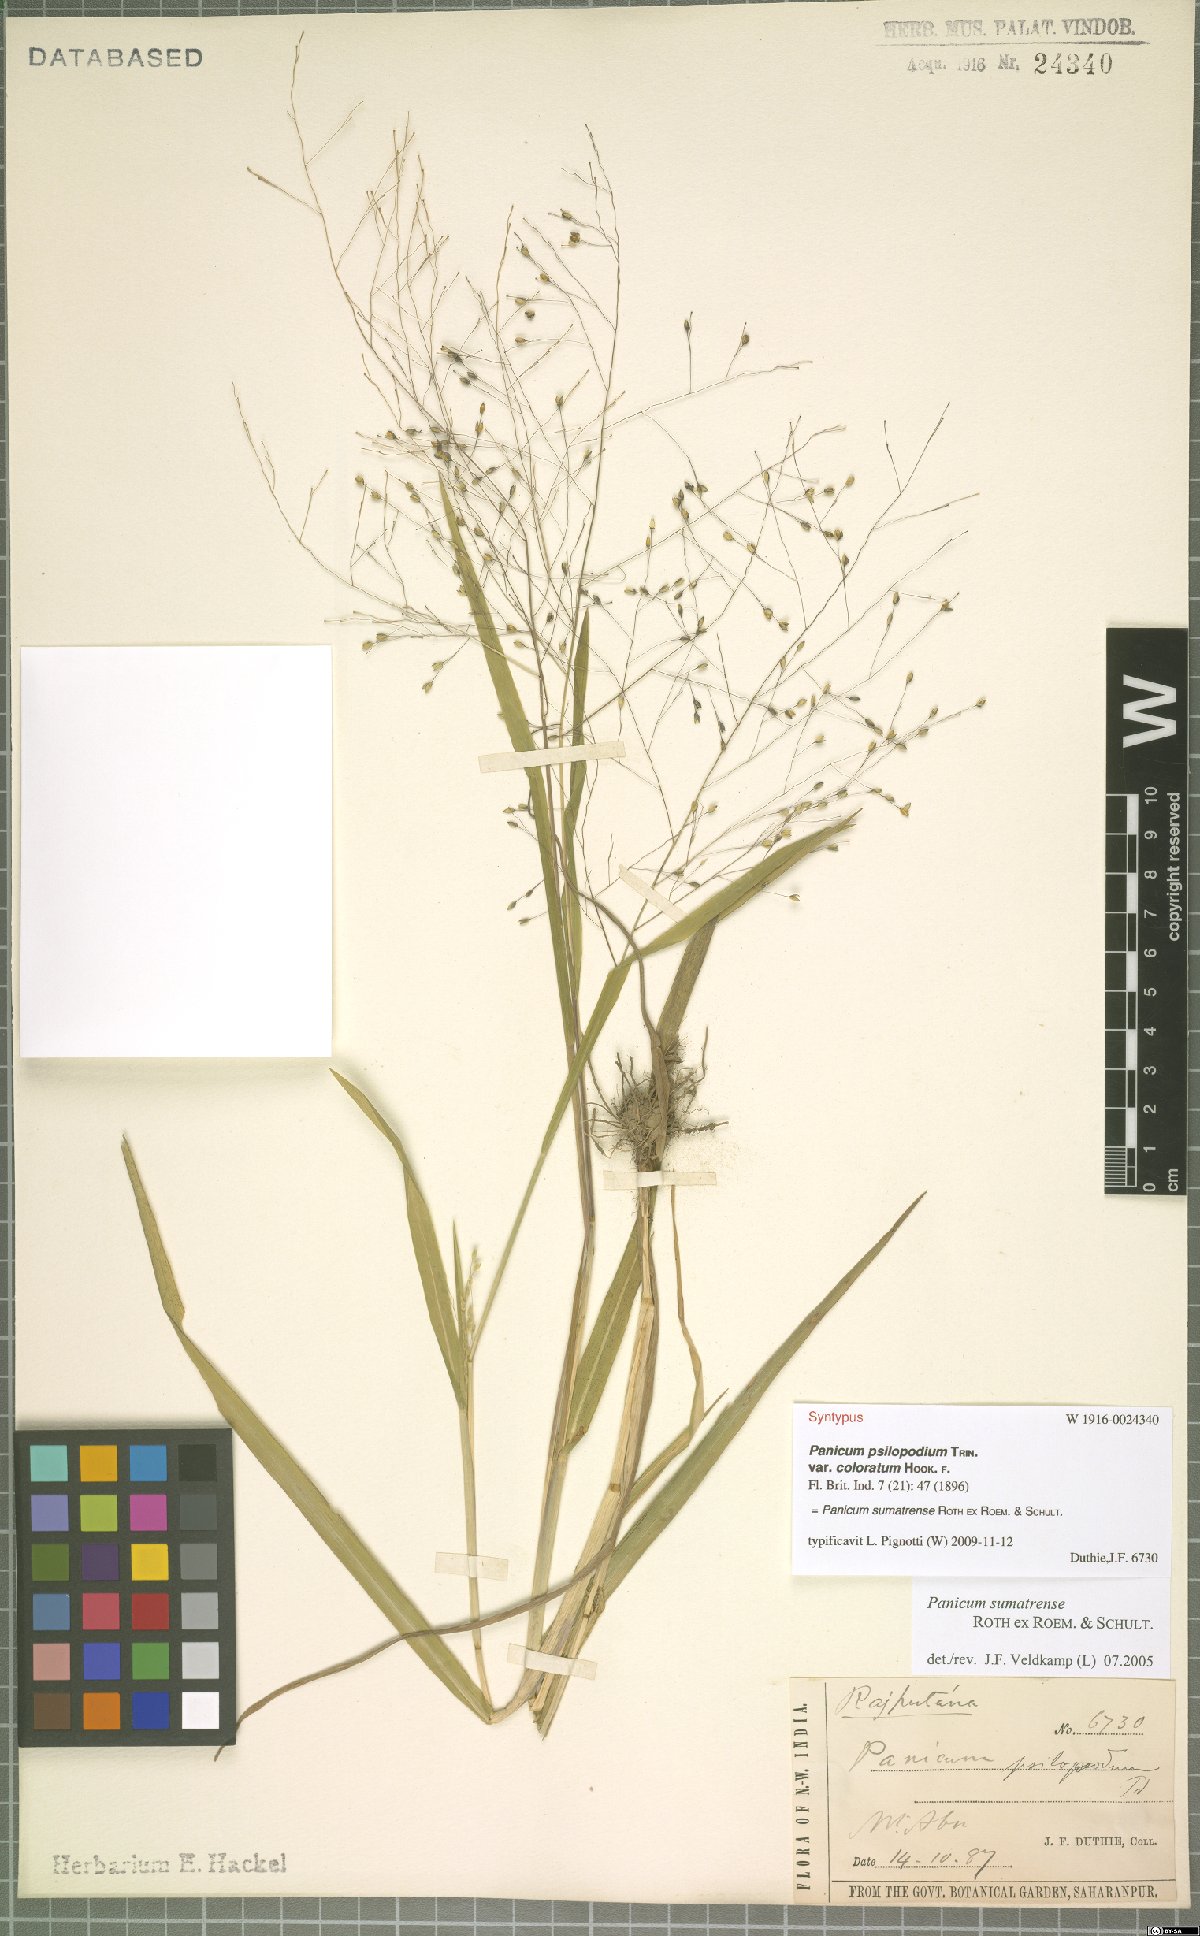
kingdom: Plantae
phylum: Tracheophyta
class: Liliopsida
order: Poales
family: Poaceae
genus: Panicum
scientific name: Panicum sumatrense
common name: Little millet
